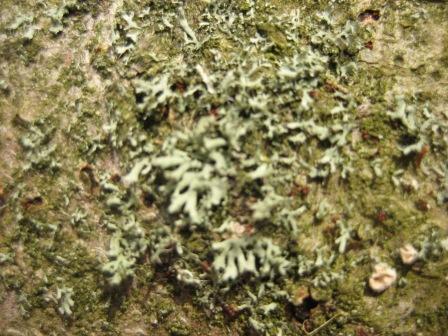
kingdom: Fungi
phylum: Ascomycota
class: Lecanoromycetes
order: Caliciales
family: Physciaceae
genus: Physcia
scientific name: Physcia tenella
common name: spæd rosetlav
